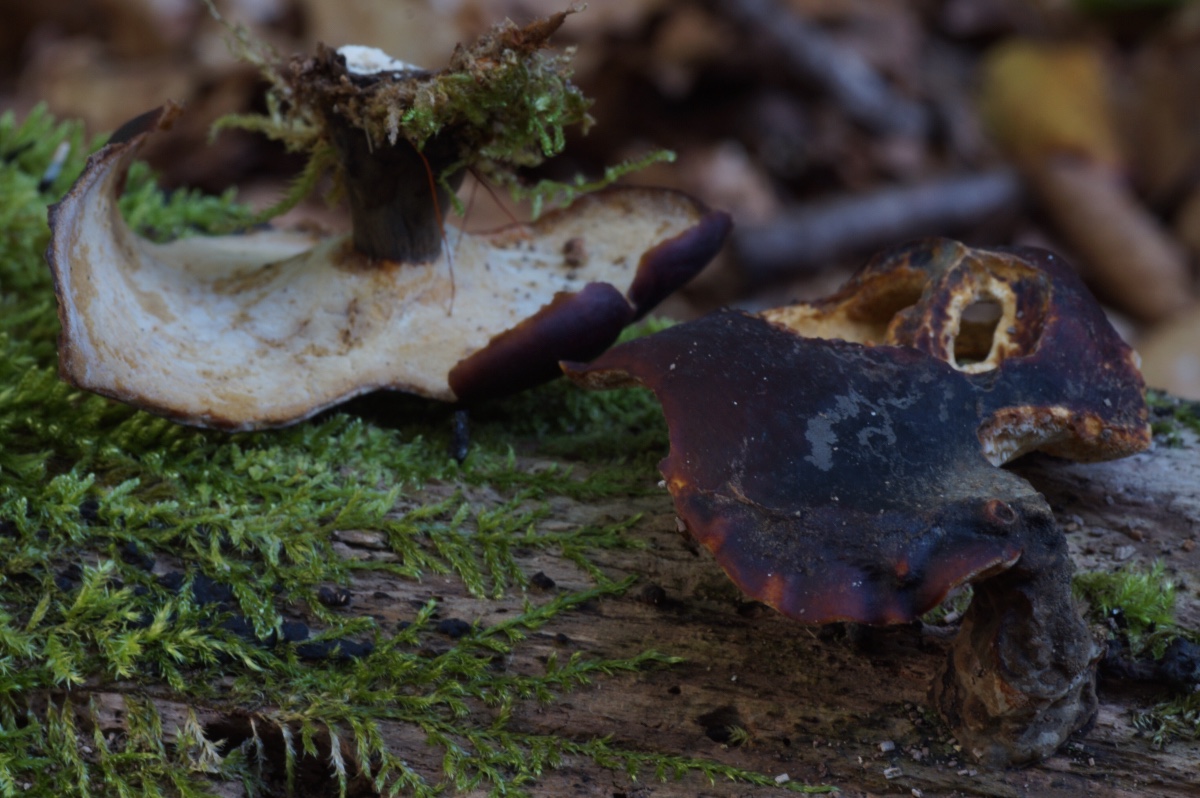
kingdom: Fungi
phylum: Basidiomycota
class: Agaricomycetes
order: Polyporales
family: Polyporaceae
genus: Picipes
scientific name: Picipes badius
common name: kastaniebrun stilkporesvamp
